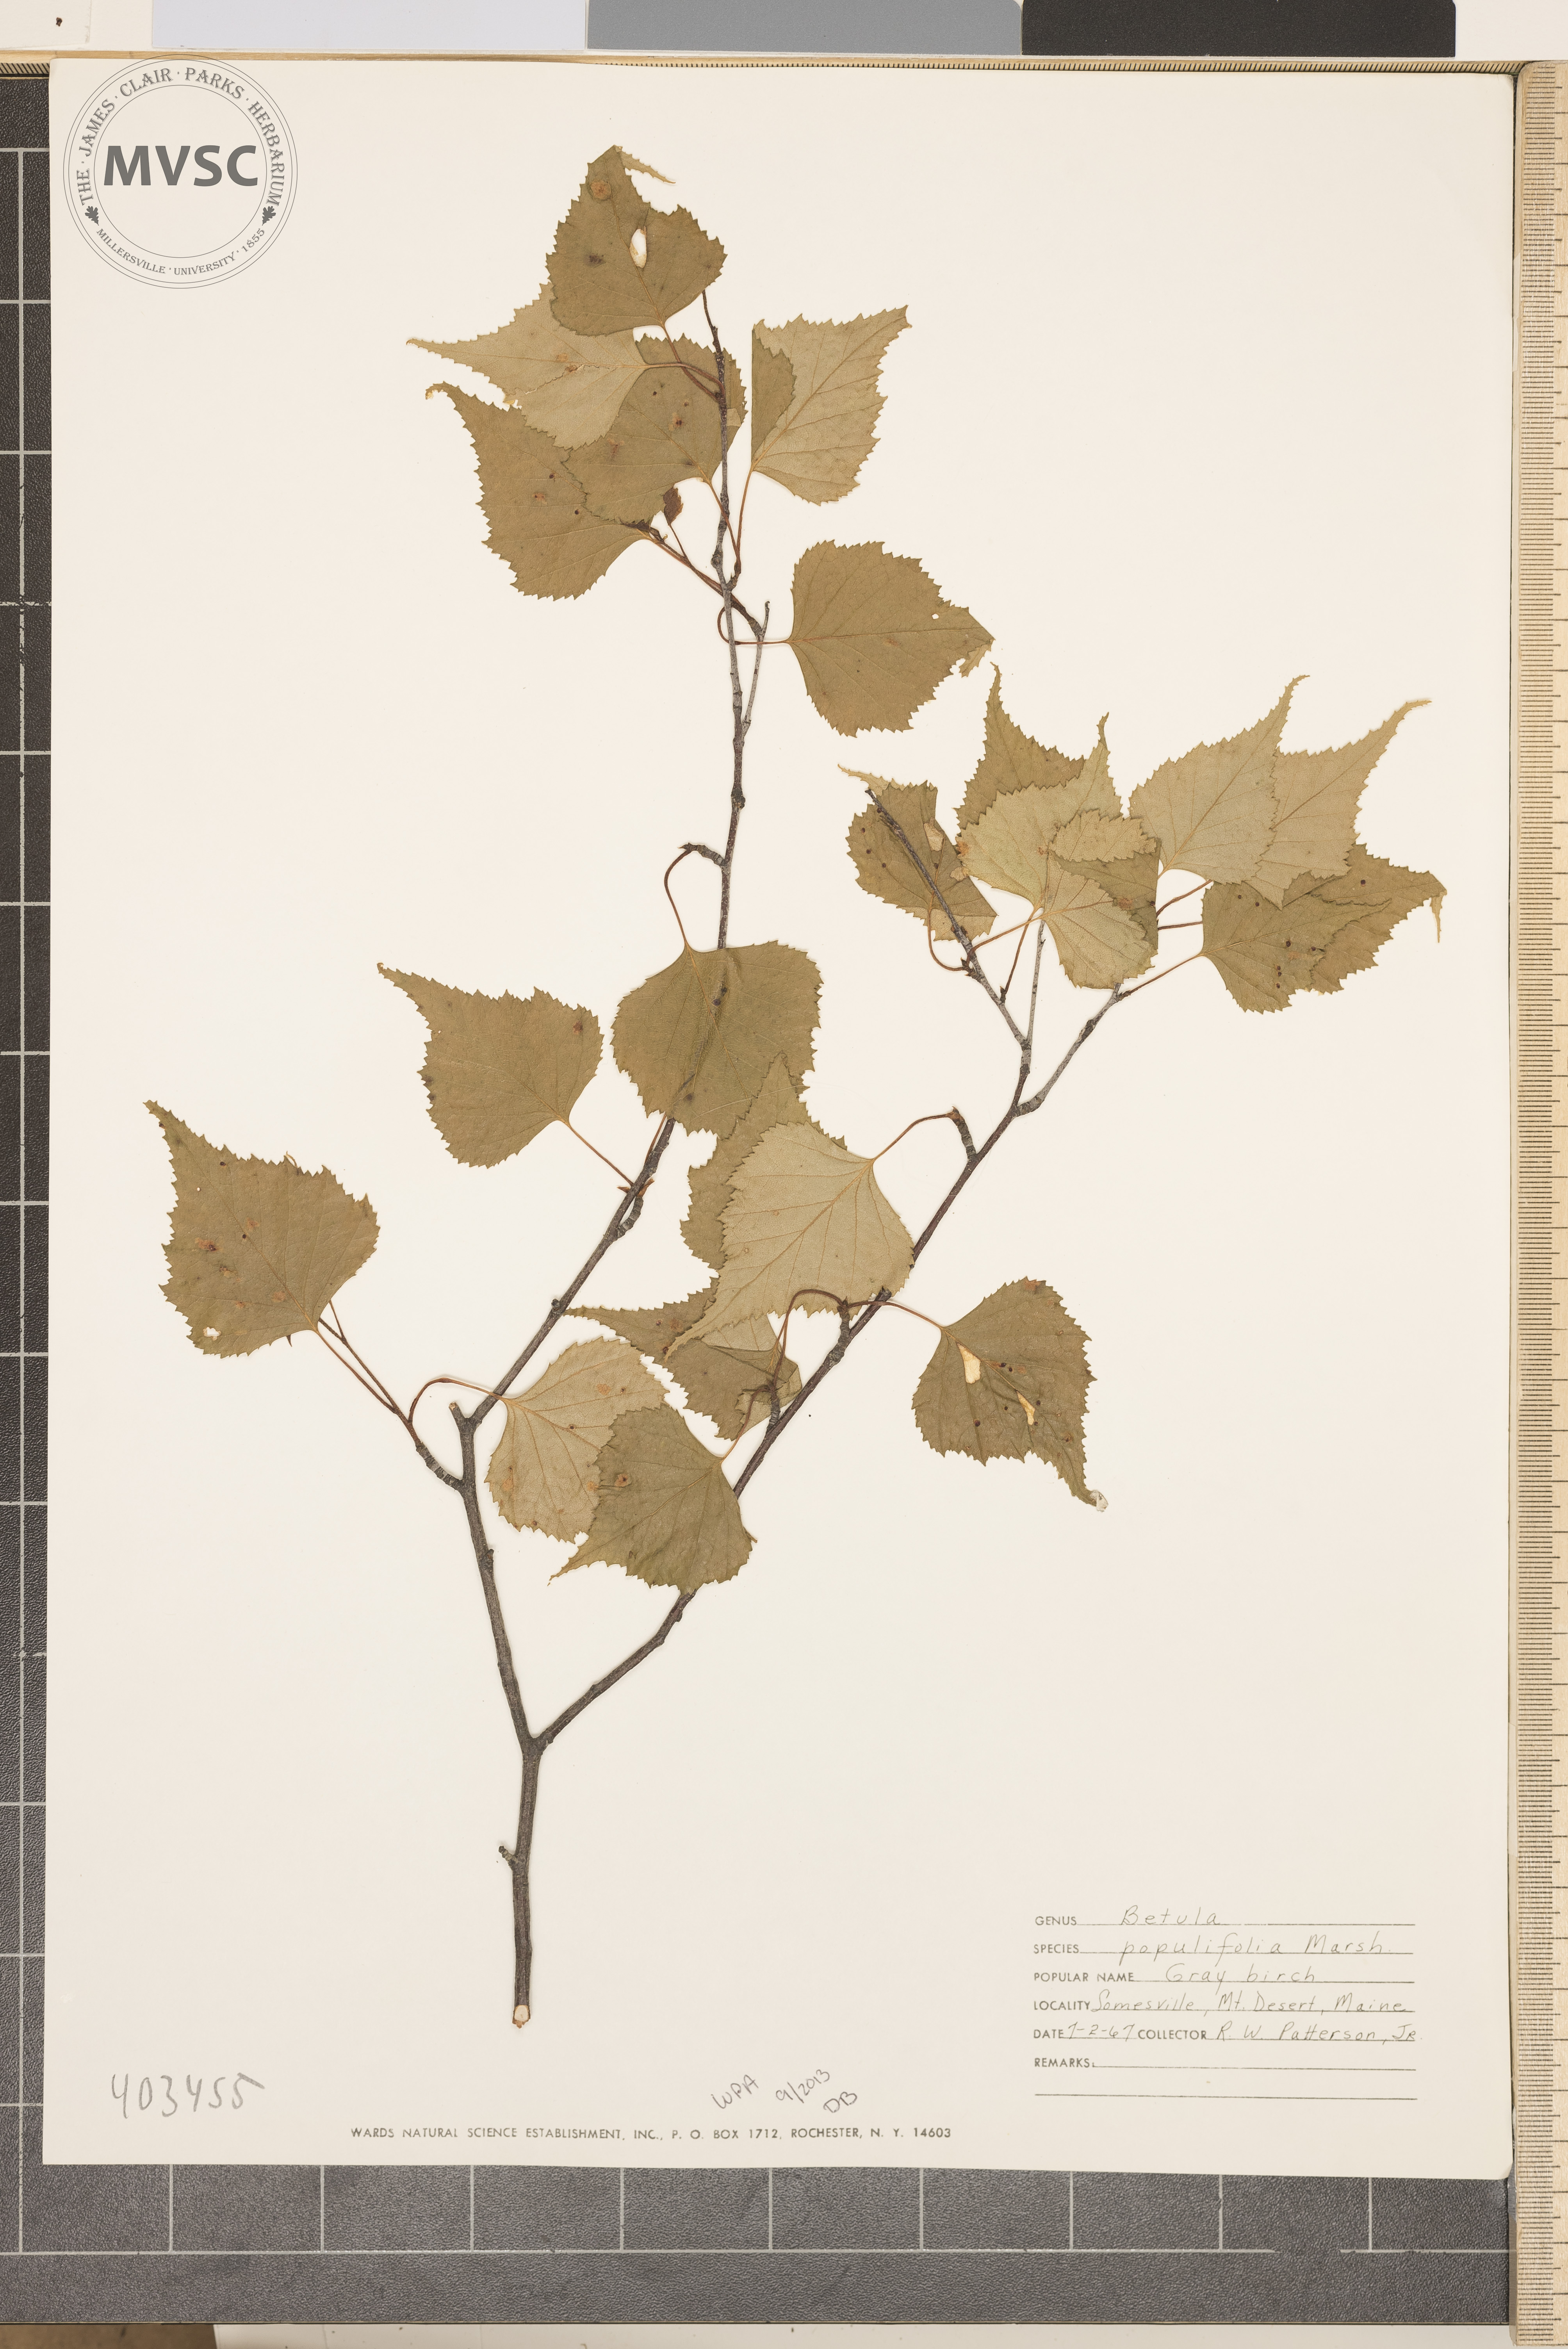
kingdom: Plantae
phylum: Tracheophyta
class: Magnoliopsida
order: Fagales
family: Betulaceae
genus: Betula
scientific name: Betula populifolia
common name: Gray Birch
